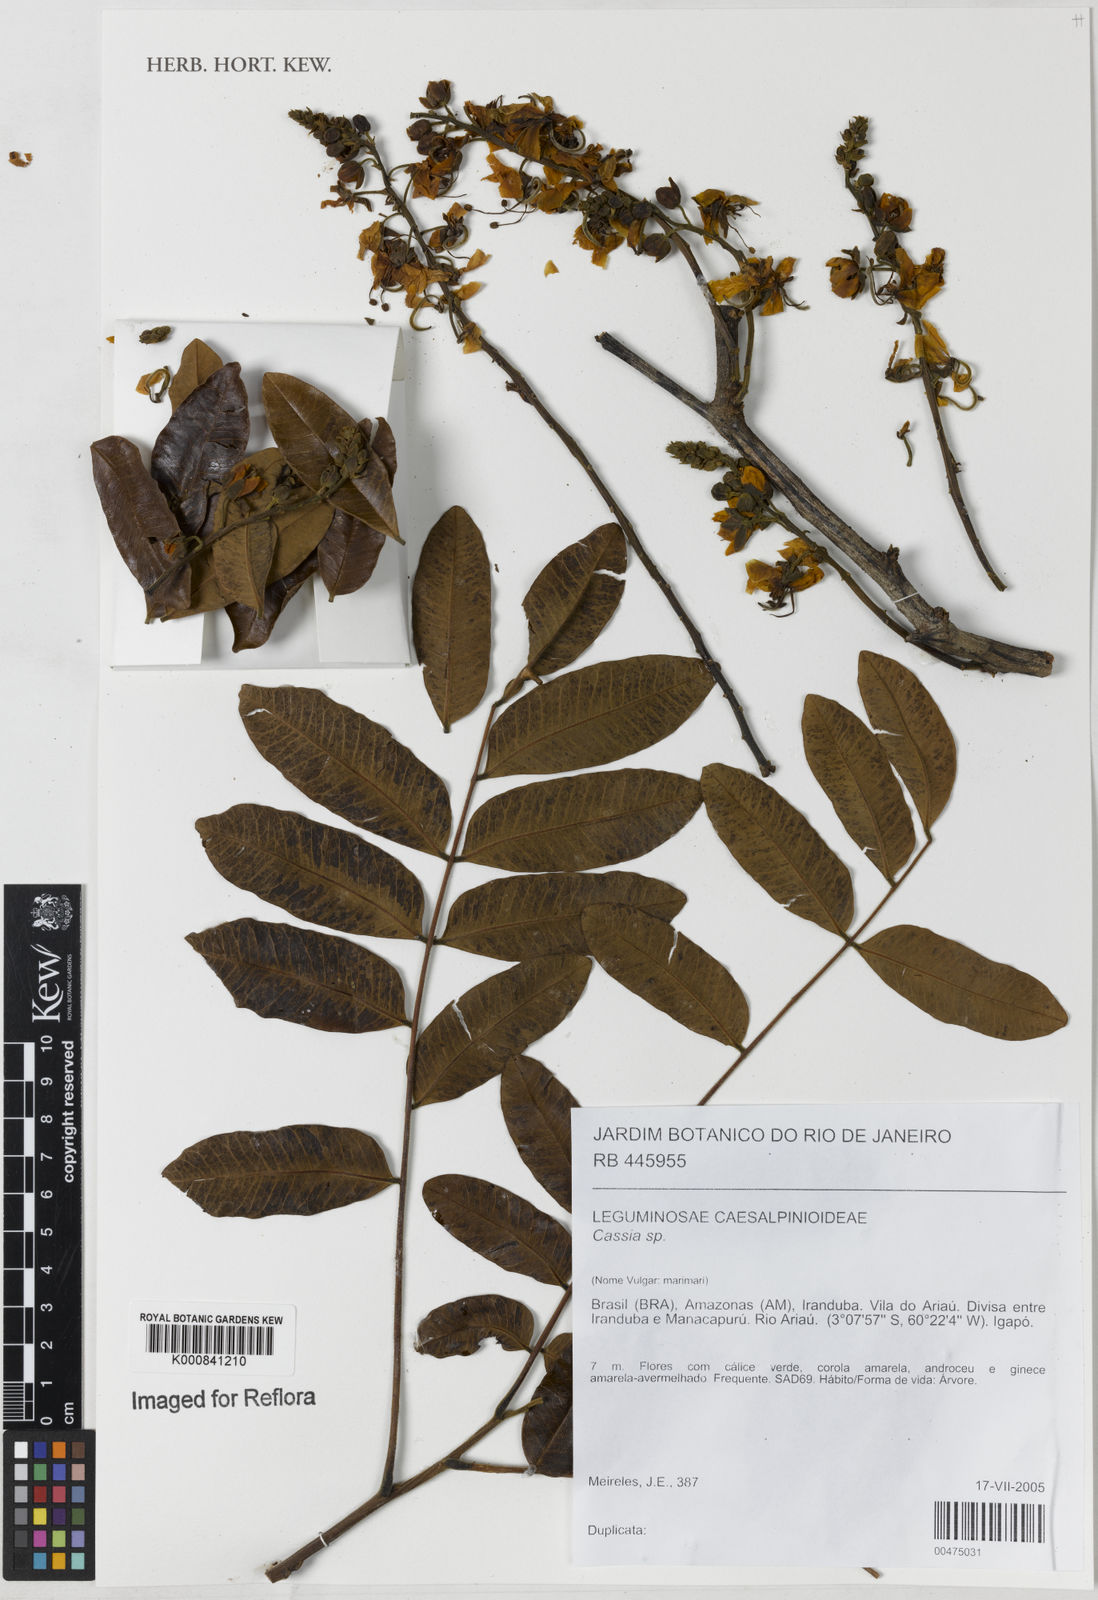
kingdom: Plantae
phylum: Tracheophyta
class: Magnoliopsida
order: Fabales
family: Fabaceae
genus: Senna
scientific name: Senna
